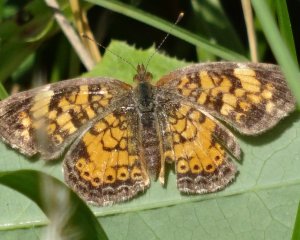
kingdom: Animalia
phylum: Arthropoda
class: Insecta
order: Lepidoptera
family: Nymphalidae
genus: Phyciodes
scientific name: Phyciodes tharos
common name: Northern Crescent
